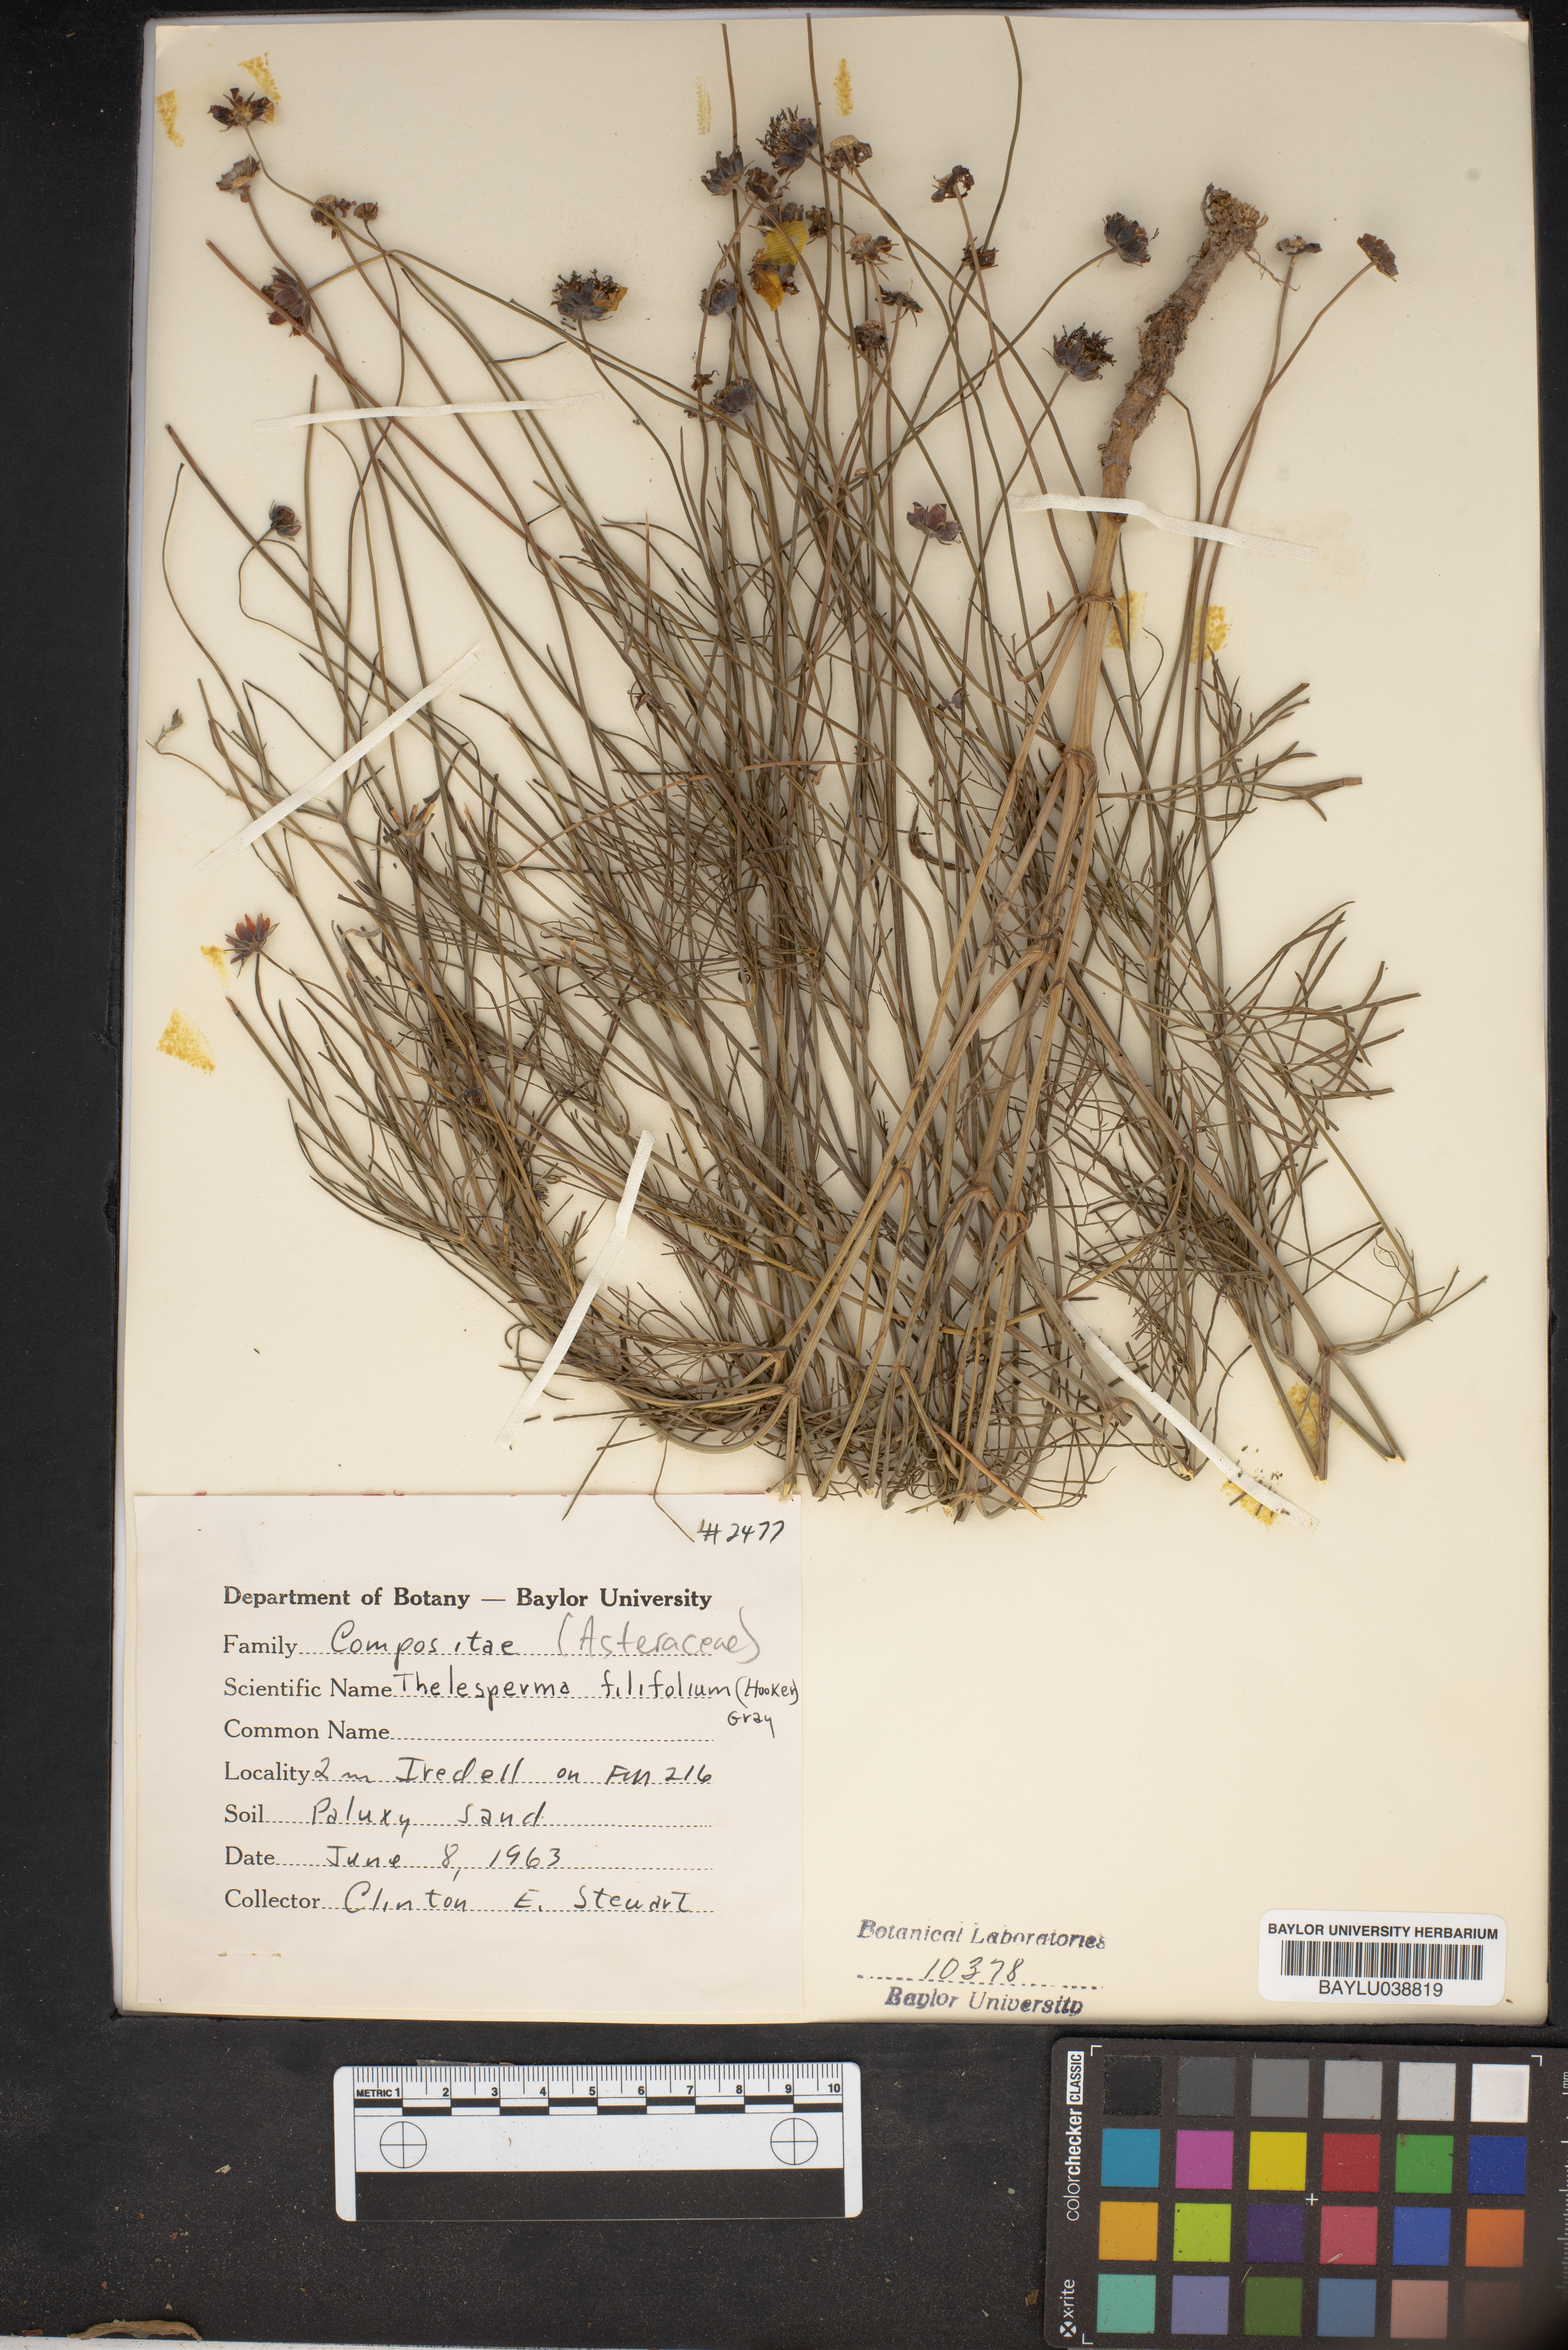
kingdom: Plantae
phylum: Tracheophyta
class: Magnoliopsida
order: Asterales
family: Asteraceae
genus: Thelesperma
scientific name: Thelesperma filifolium
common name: Stiff greenthread
